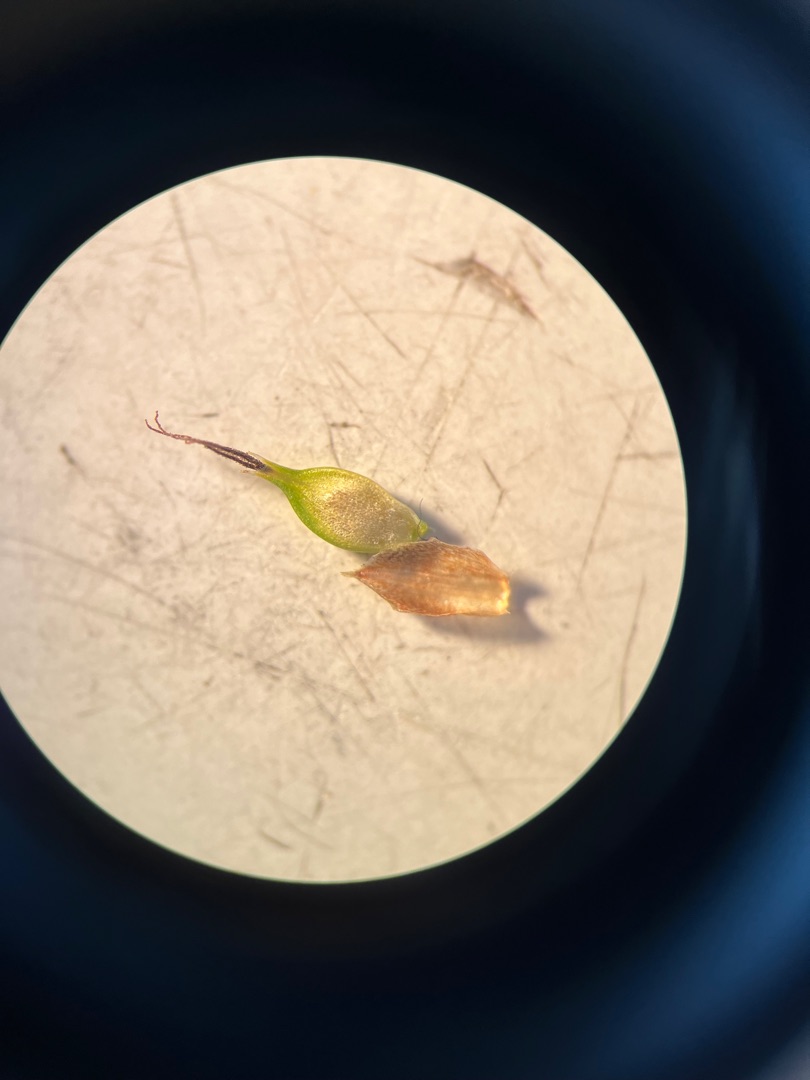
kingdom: Plantae
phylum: Tracheophyta
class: Liliopsida
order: Poales
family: Cyperaceae
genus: Carex
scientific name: Carex distans
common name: Fjernakset star
